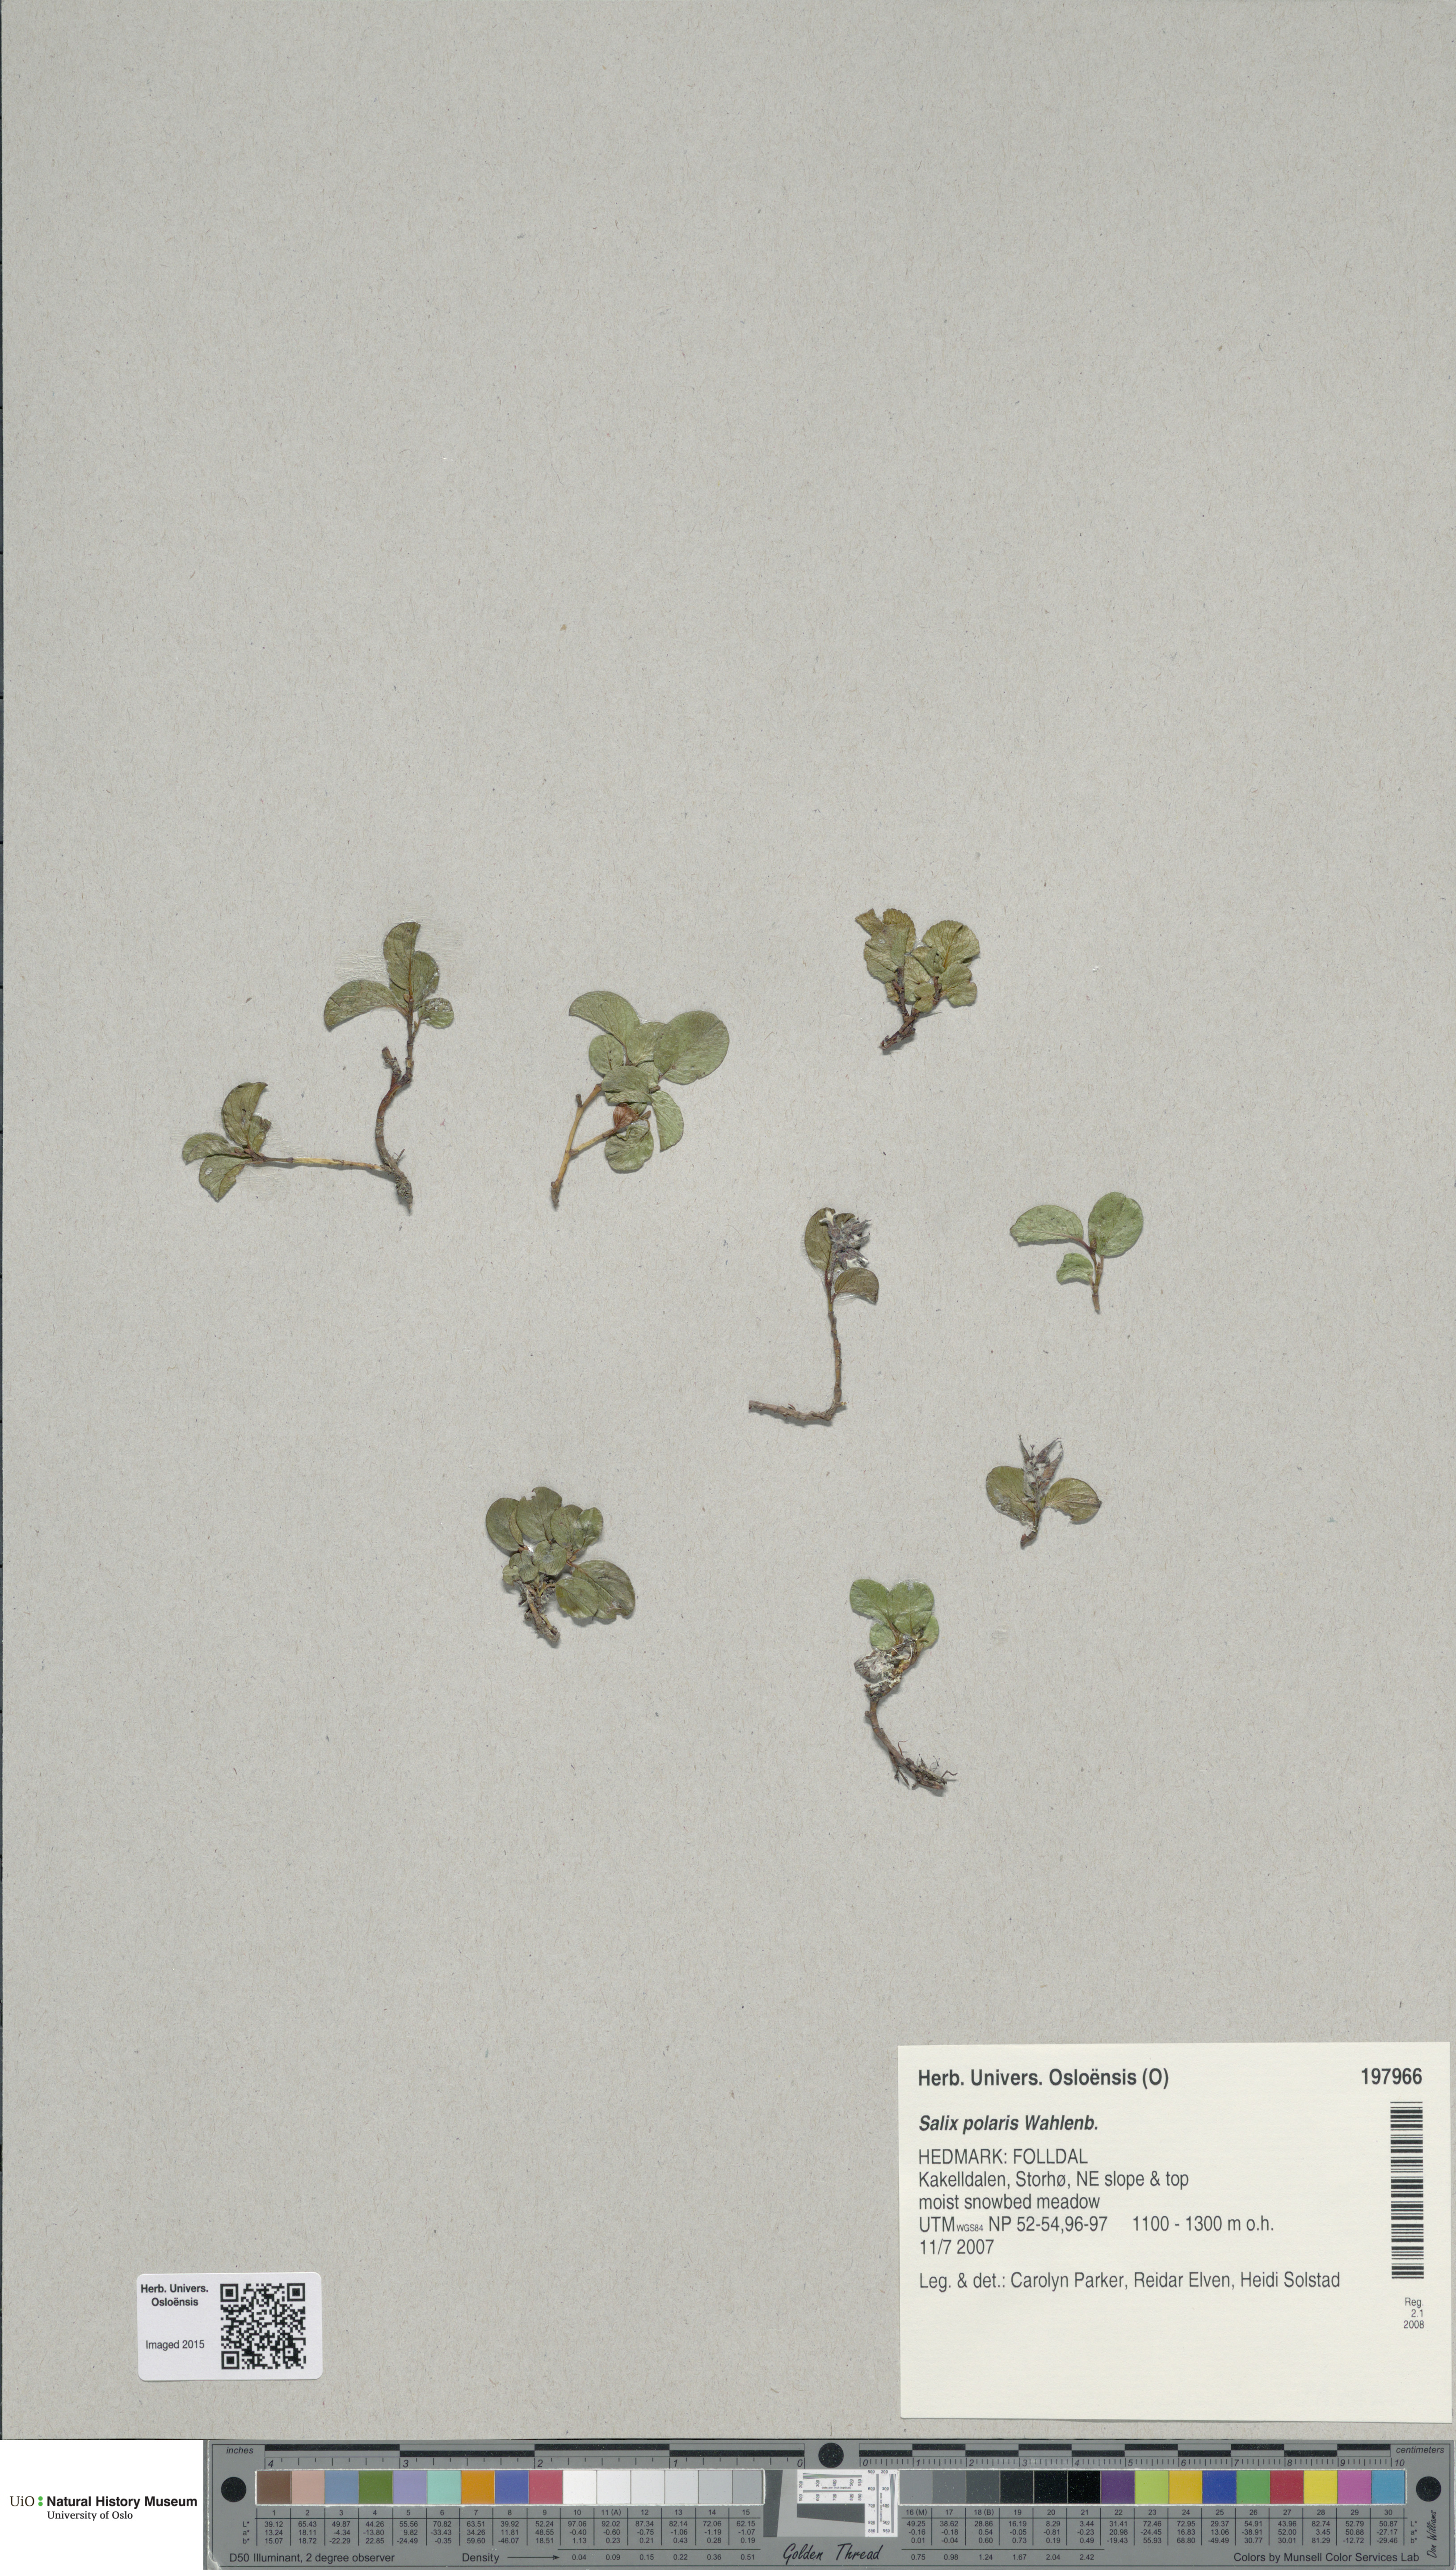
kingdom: Plantae
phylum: Tracheophyta
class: Magnoliopsida
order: Malpighiales
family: Salicaceae
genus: Salix
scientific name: Salix polaris
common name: Polar willow
